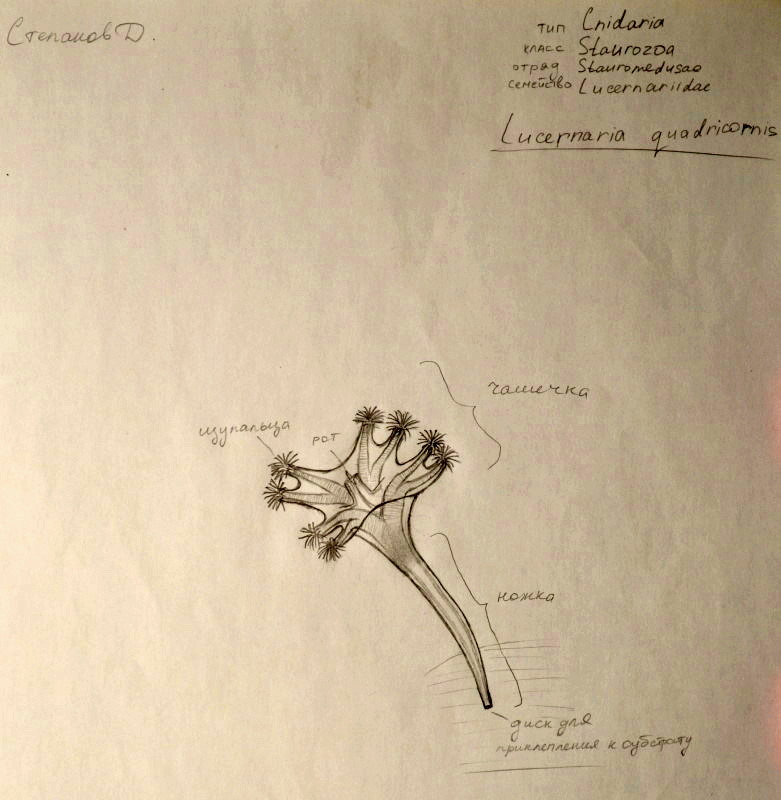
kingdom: Animalia
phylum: Cnidaria
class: Staurozoa
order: Stauromedusae
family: Lucernariidae
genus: Lucernaria
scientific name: Lucernaria quadricornis
